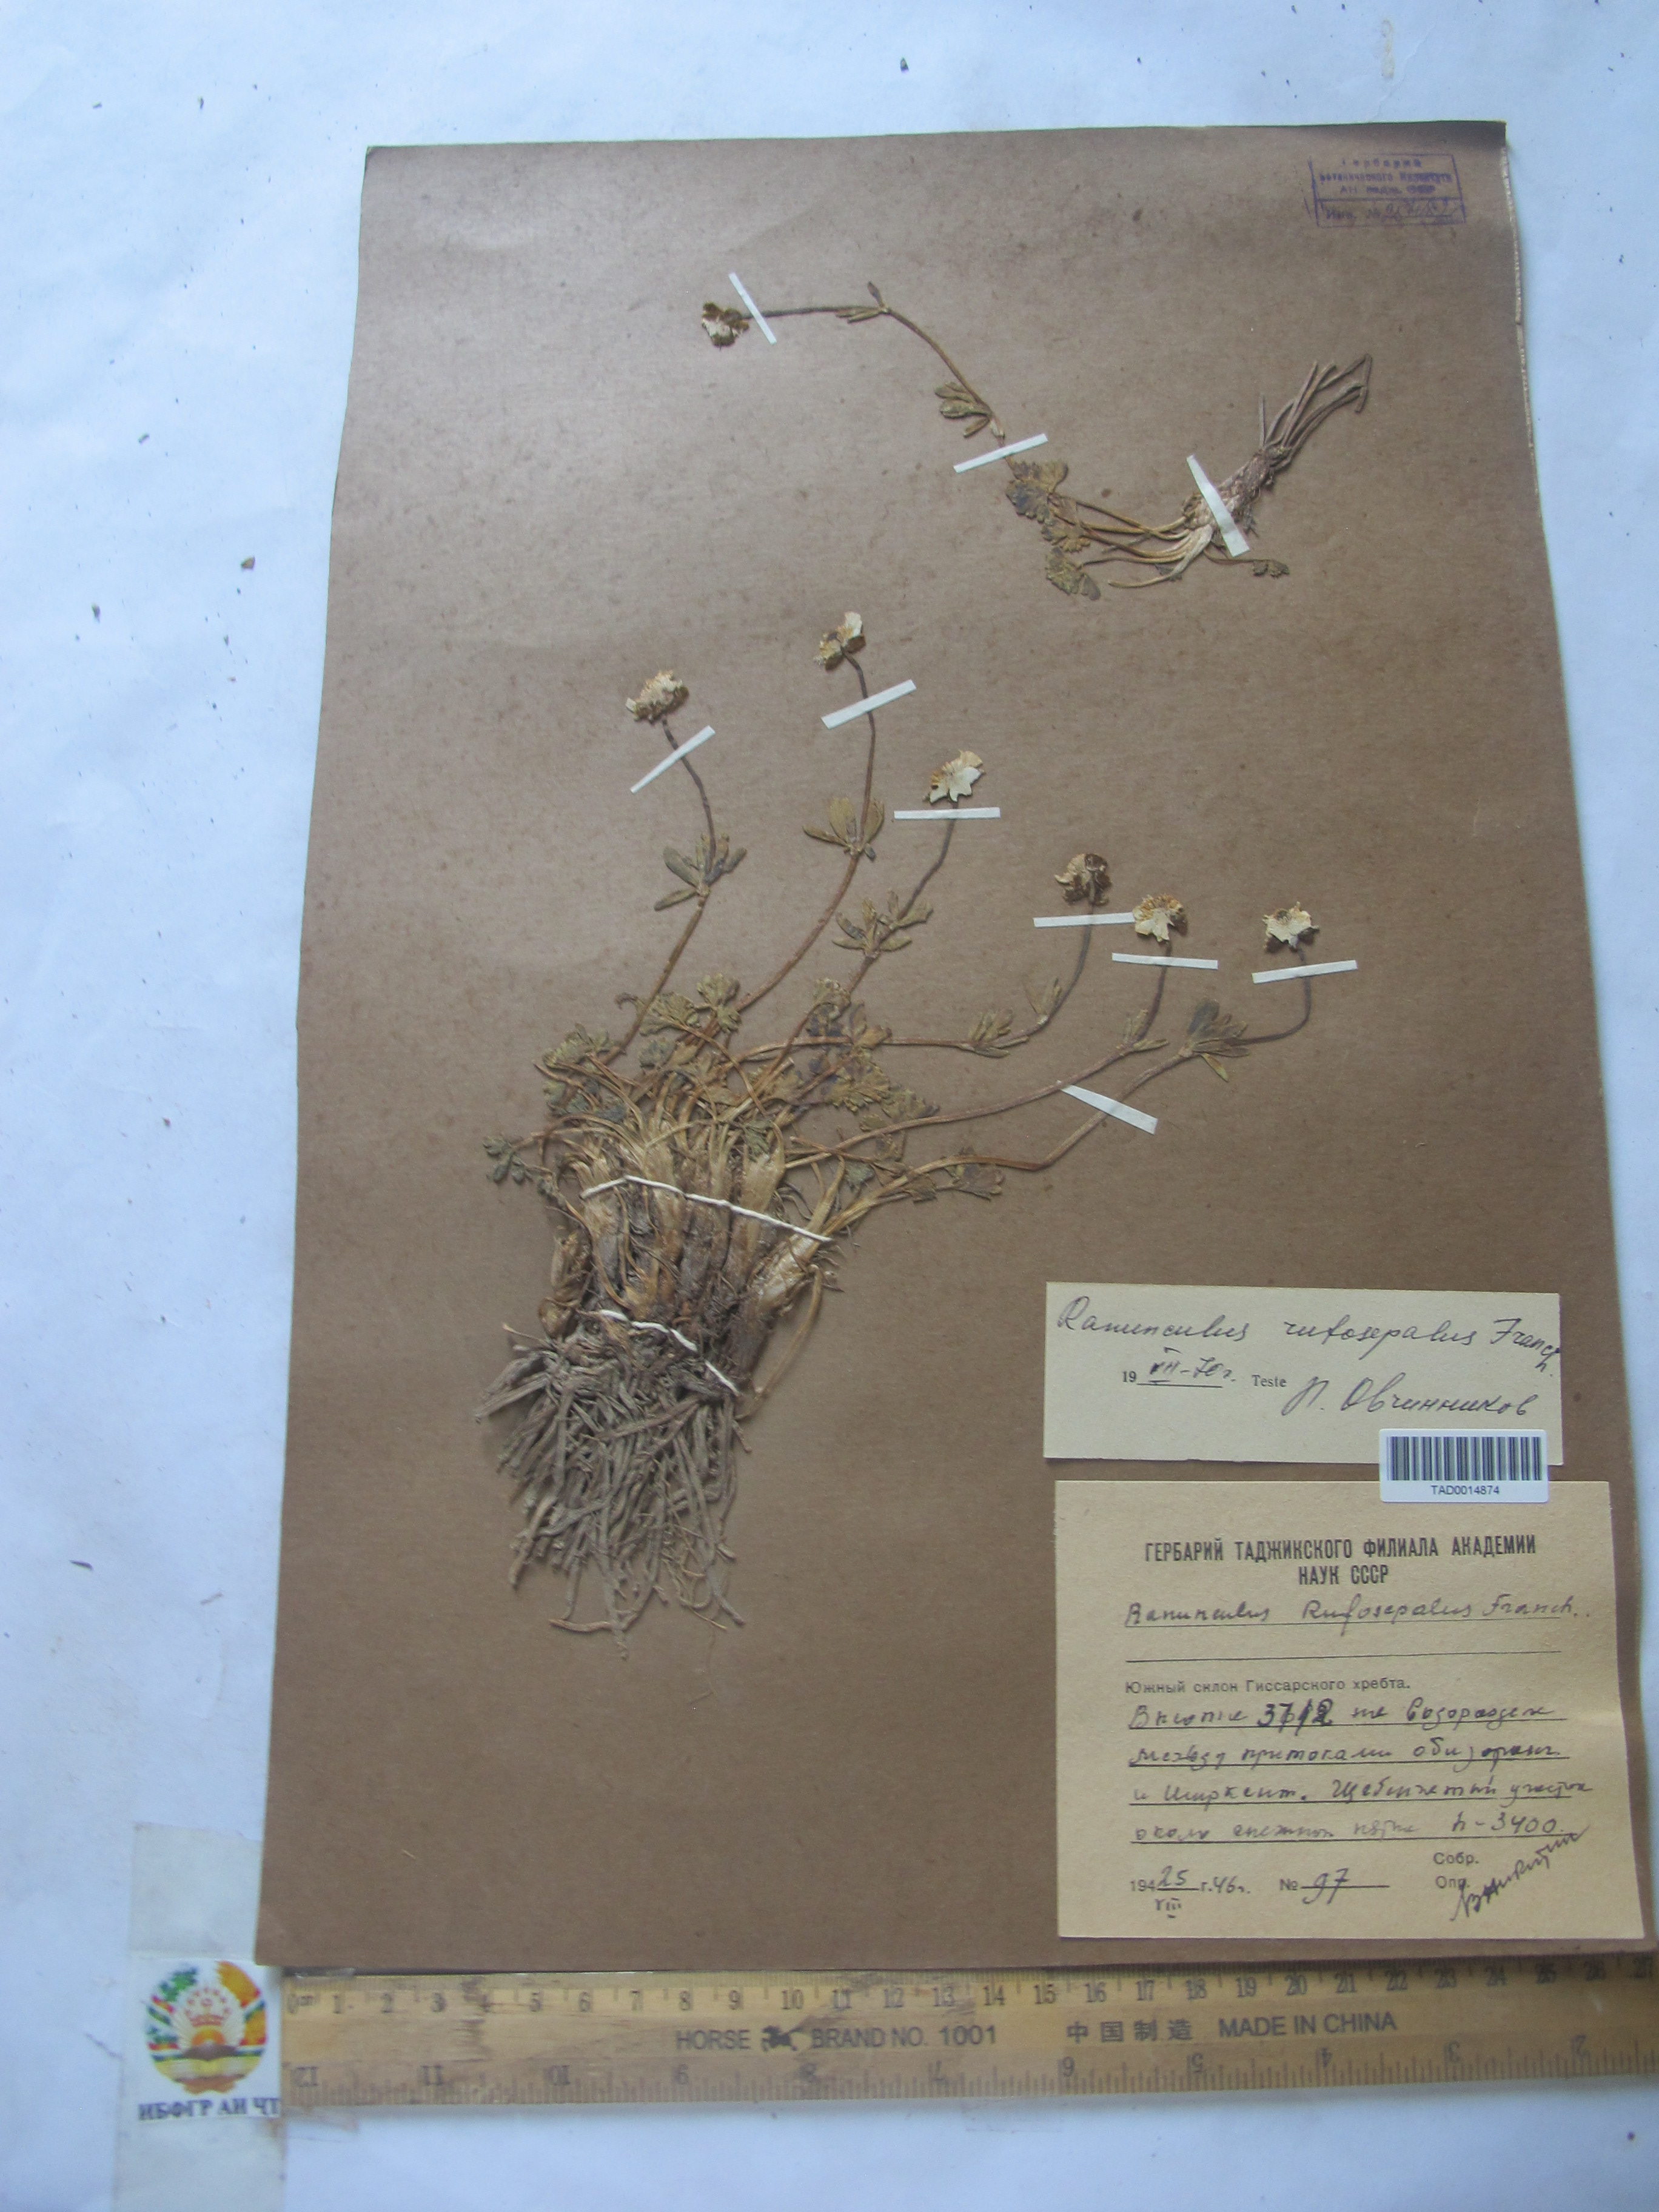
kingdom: Plantae
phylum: Tracheophyta
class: Magnoliopsida
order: Ranunculales
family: Ranunculaceae
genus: Ranunculus
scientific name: Ranunculus rufosepalus
